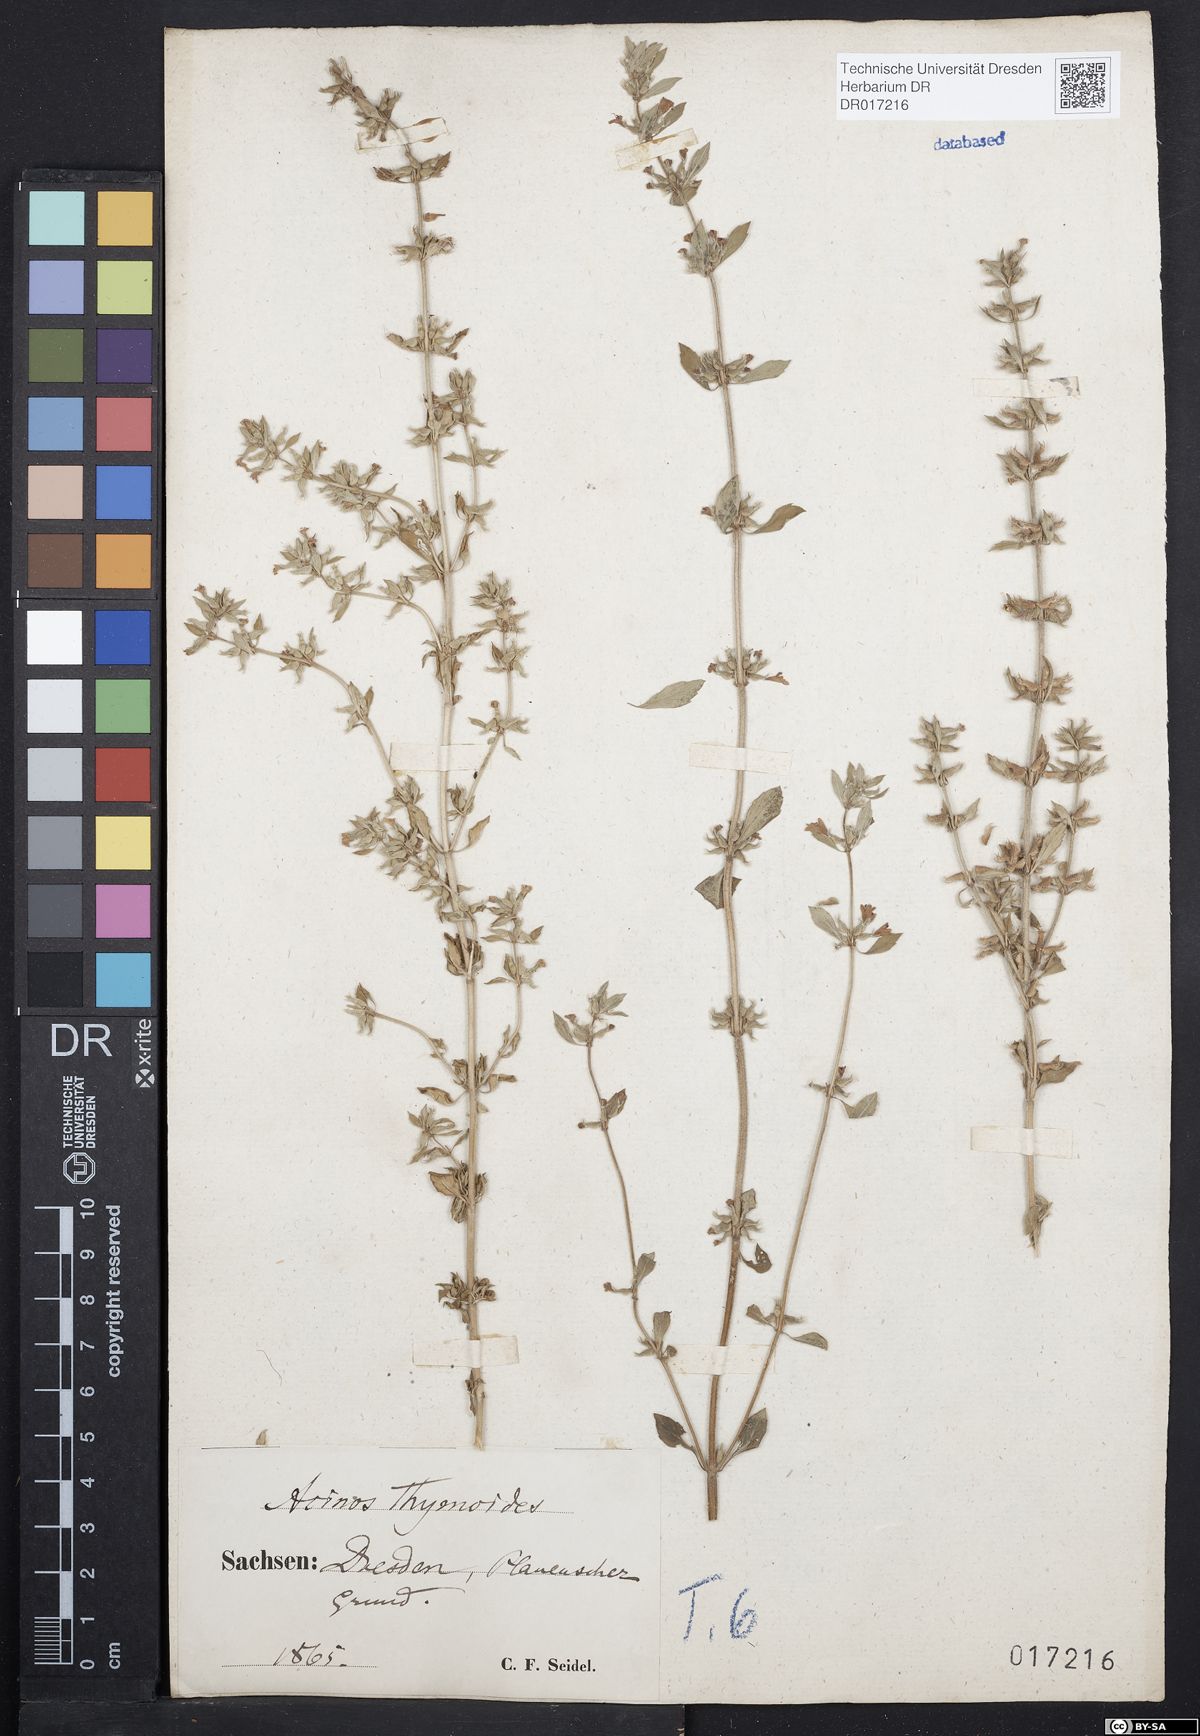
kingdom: Plantae
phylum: Tracheophyta
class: Magnoliopsida
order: Lamiales
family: Lamiaceae
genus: Clinopodium
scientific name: Clinopodium acinos
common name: Basil thyme
